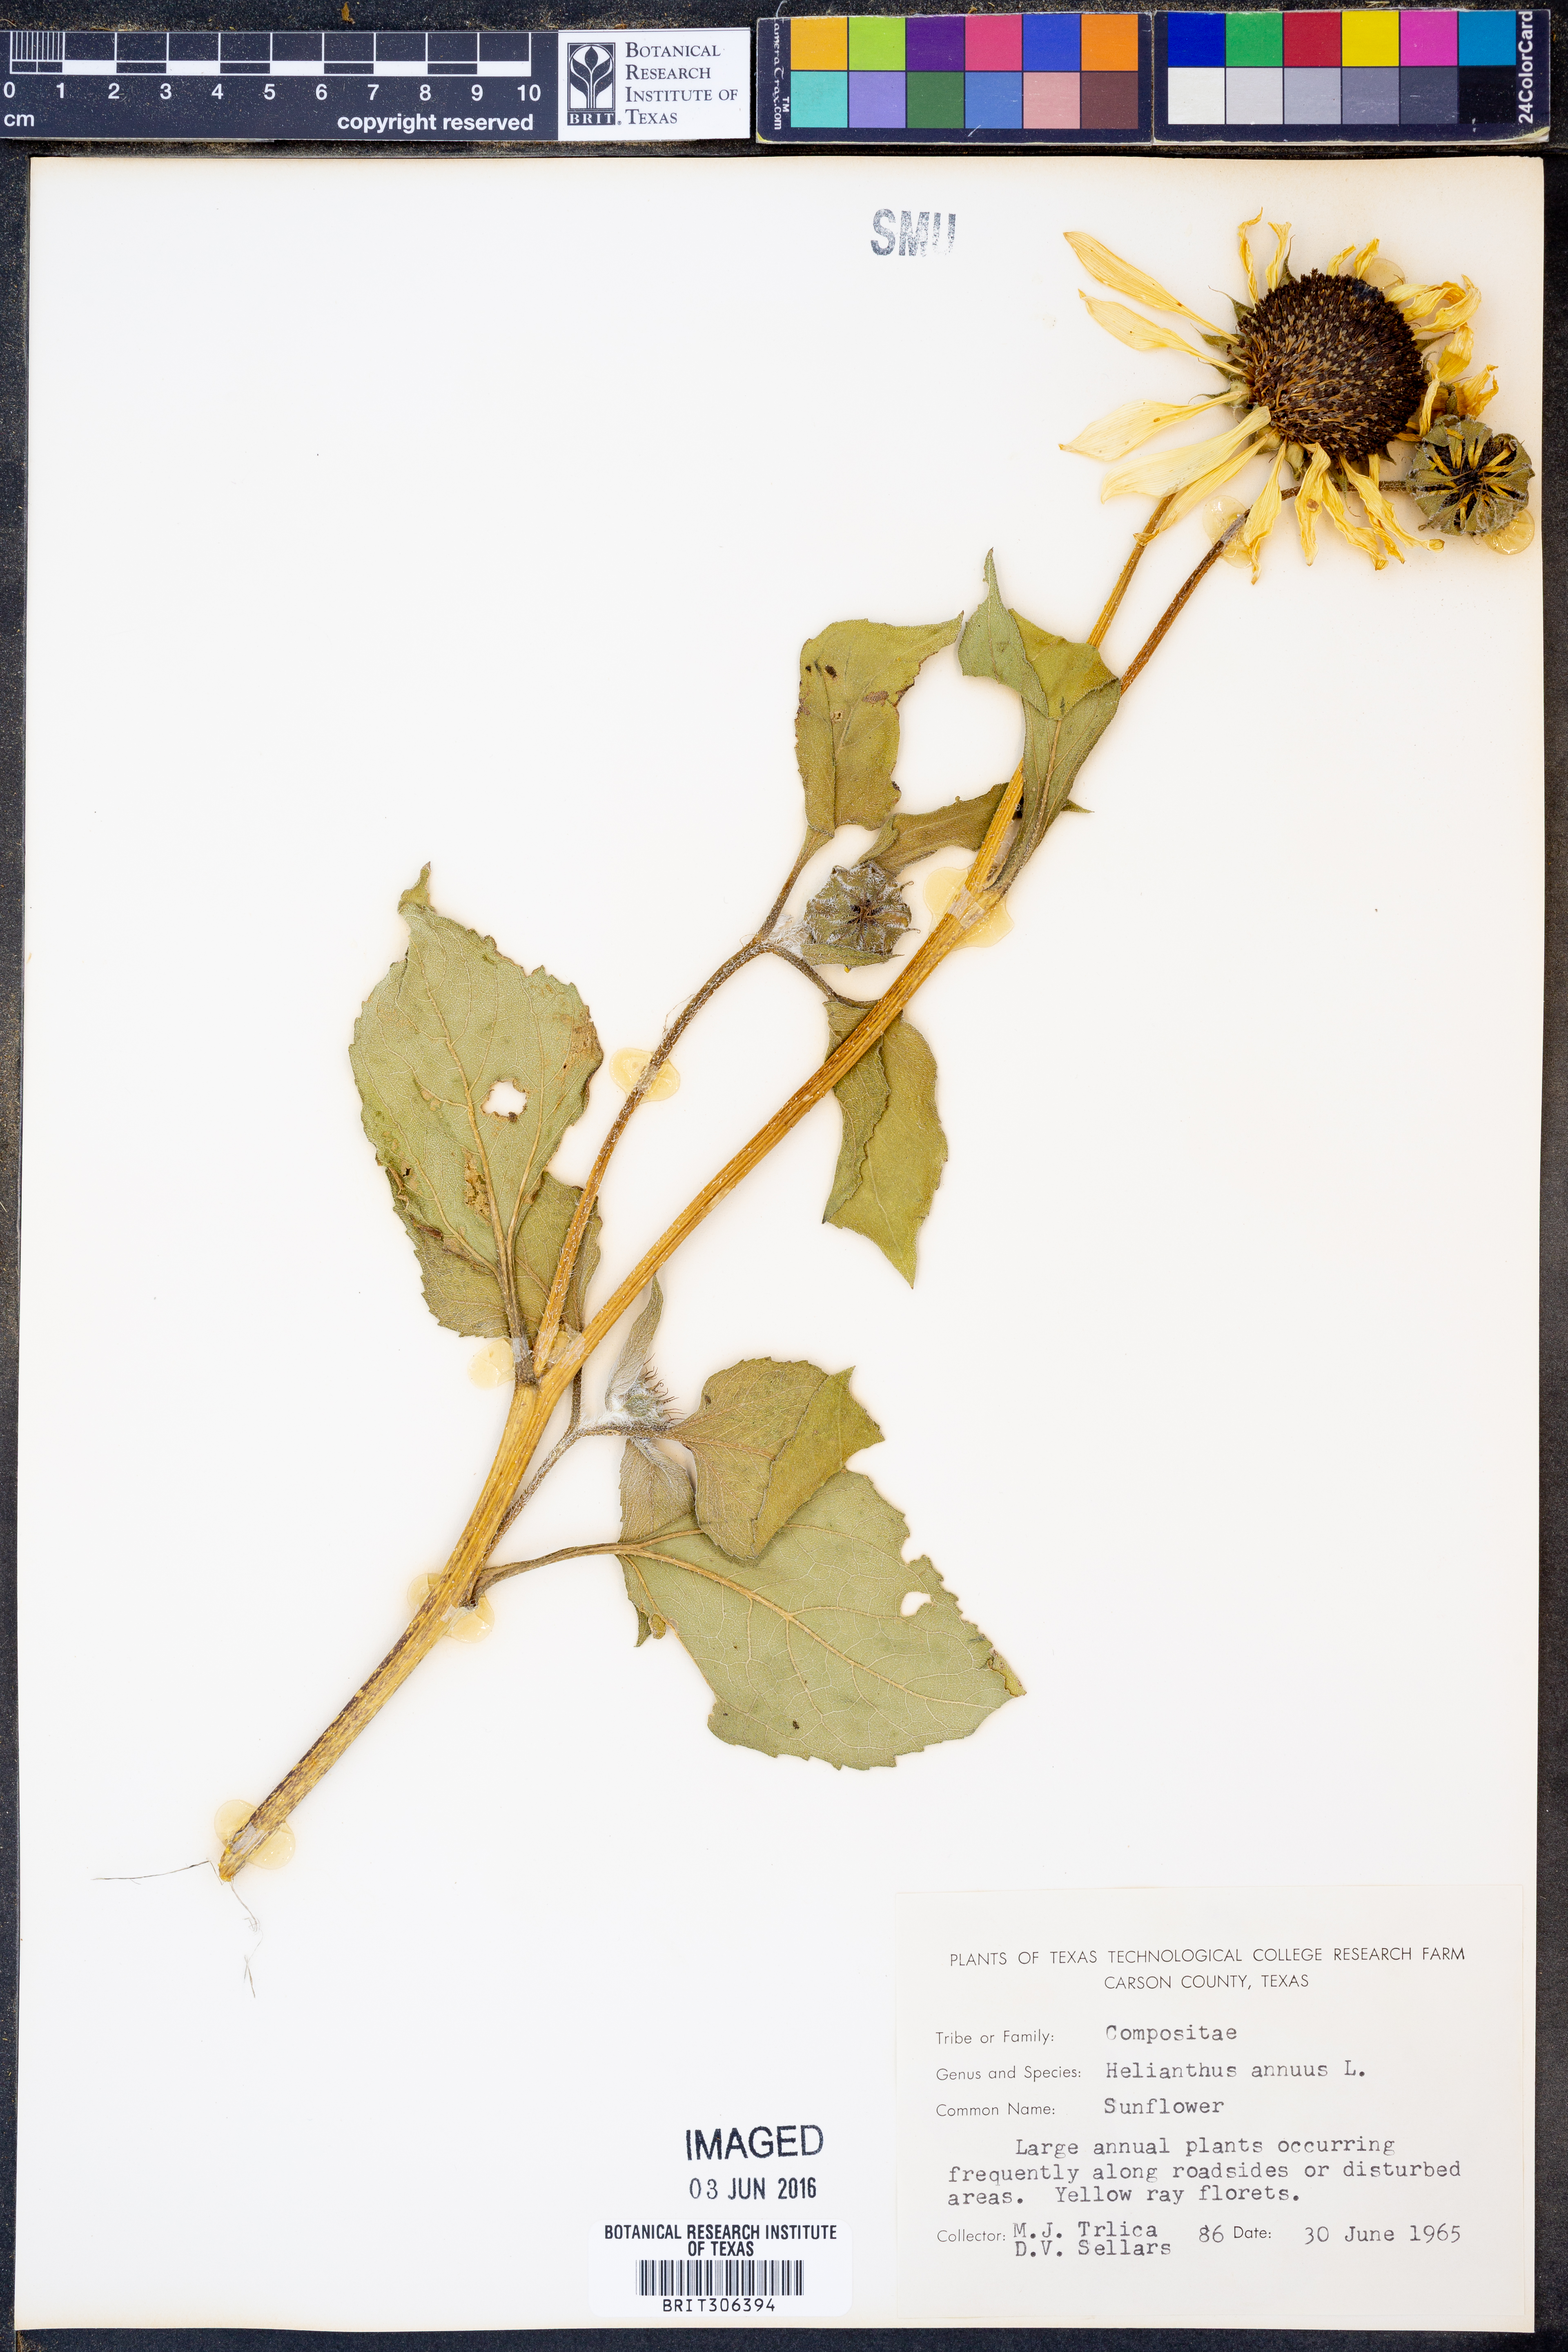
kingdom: Plantae
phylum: Tracheophyta
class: Magnoliopsida
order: Asterales
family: Asteraceae
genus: Helianthus
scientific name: Helianthus annuus
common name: Sunflower
